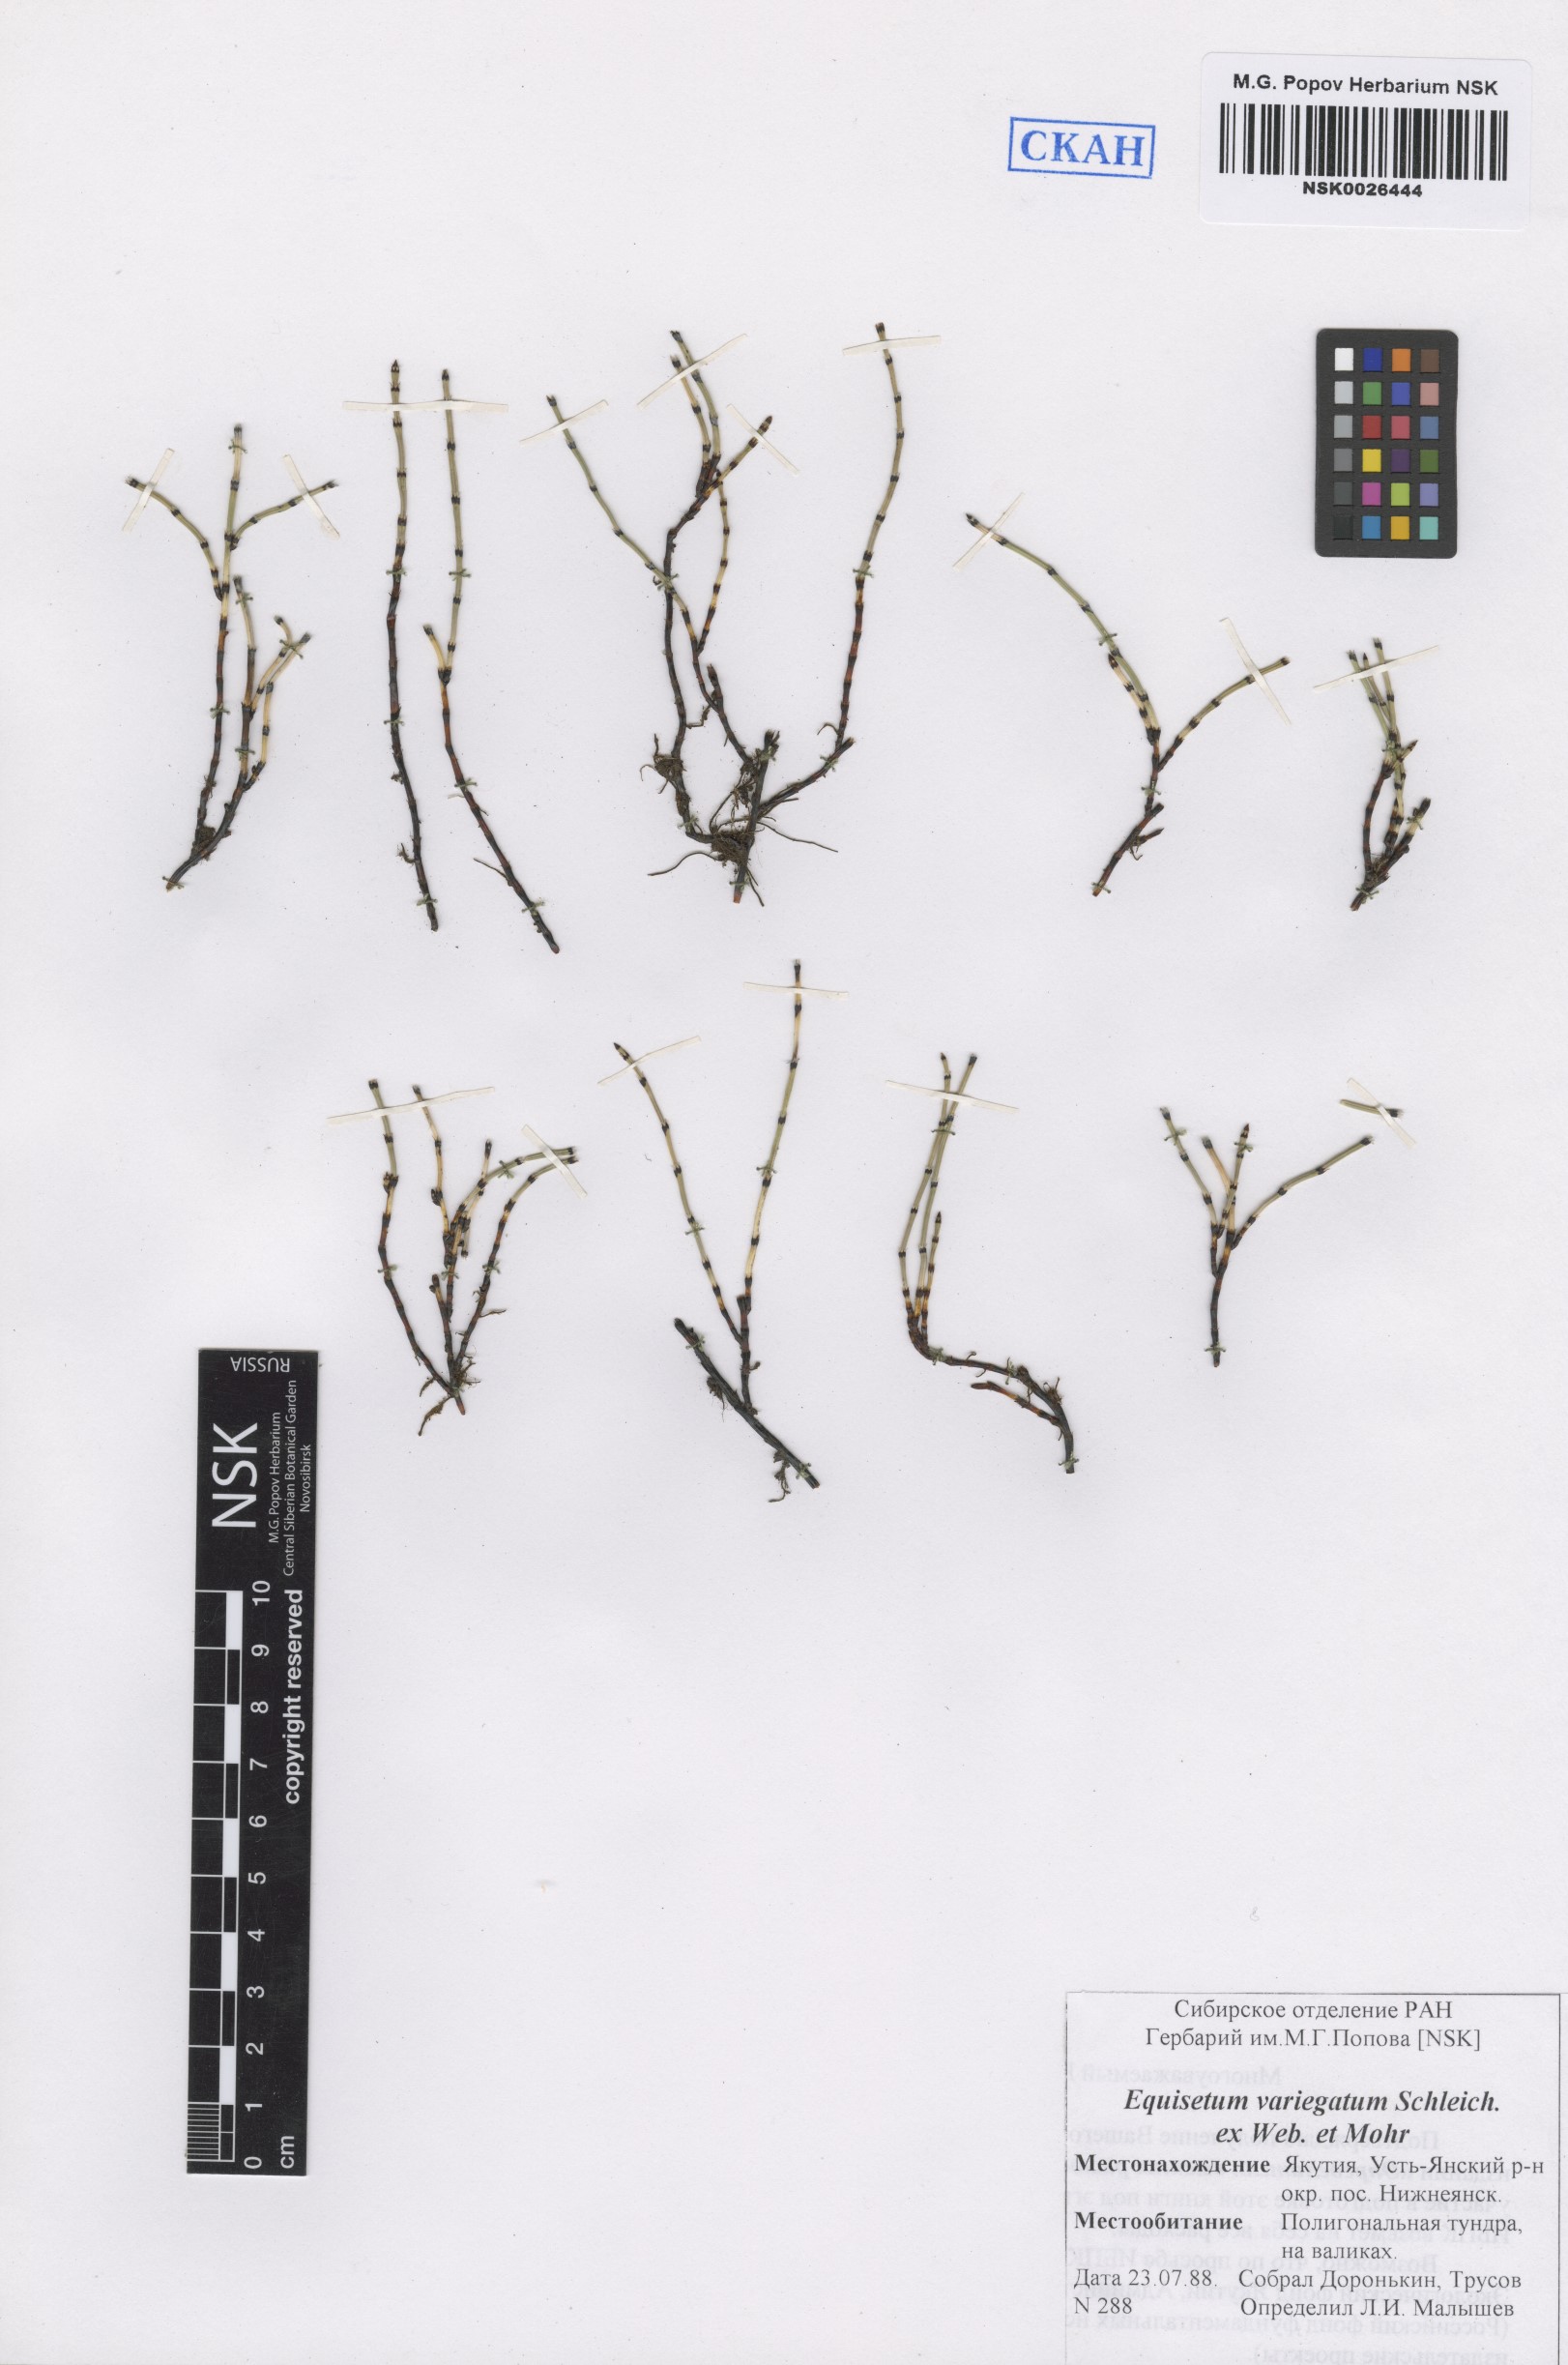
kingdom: Plantae
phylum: Tracheophyta
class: Polypodiopsida
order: Equisetales
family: Equisetaceae
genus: Equisetum
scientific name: Equisetum variegatum
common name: Variegated horsetail
